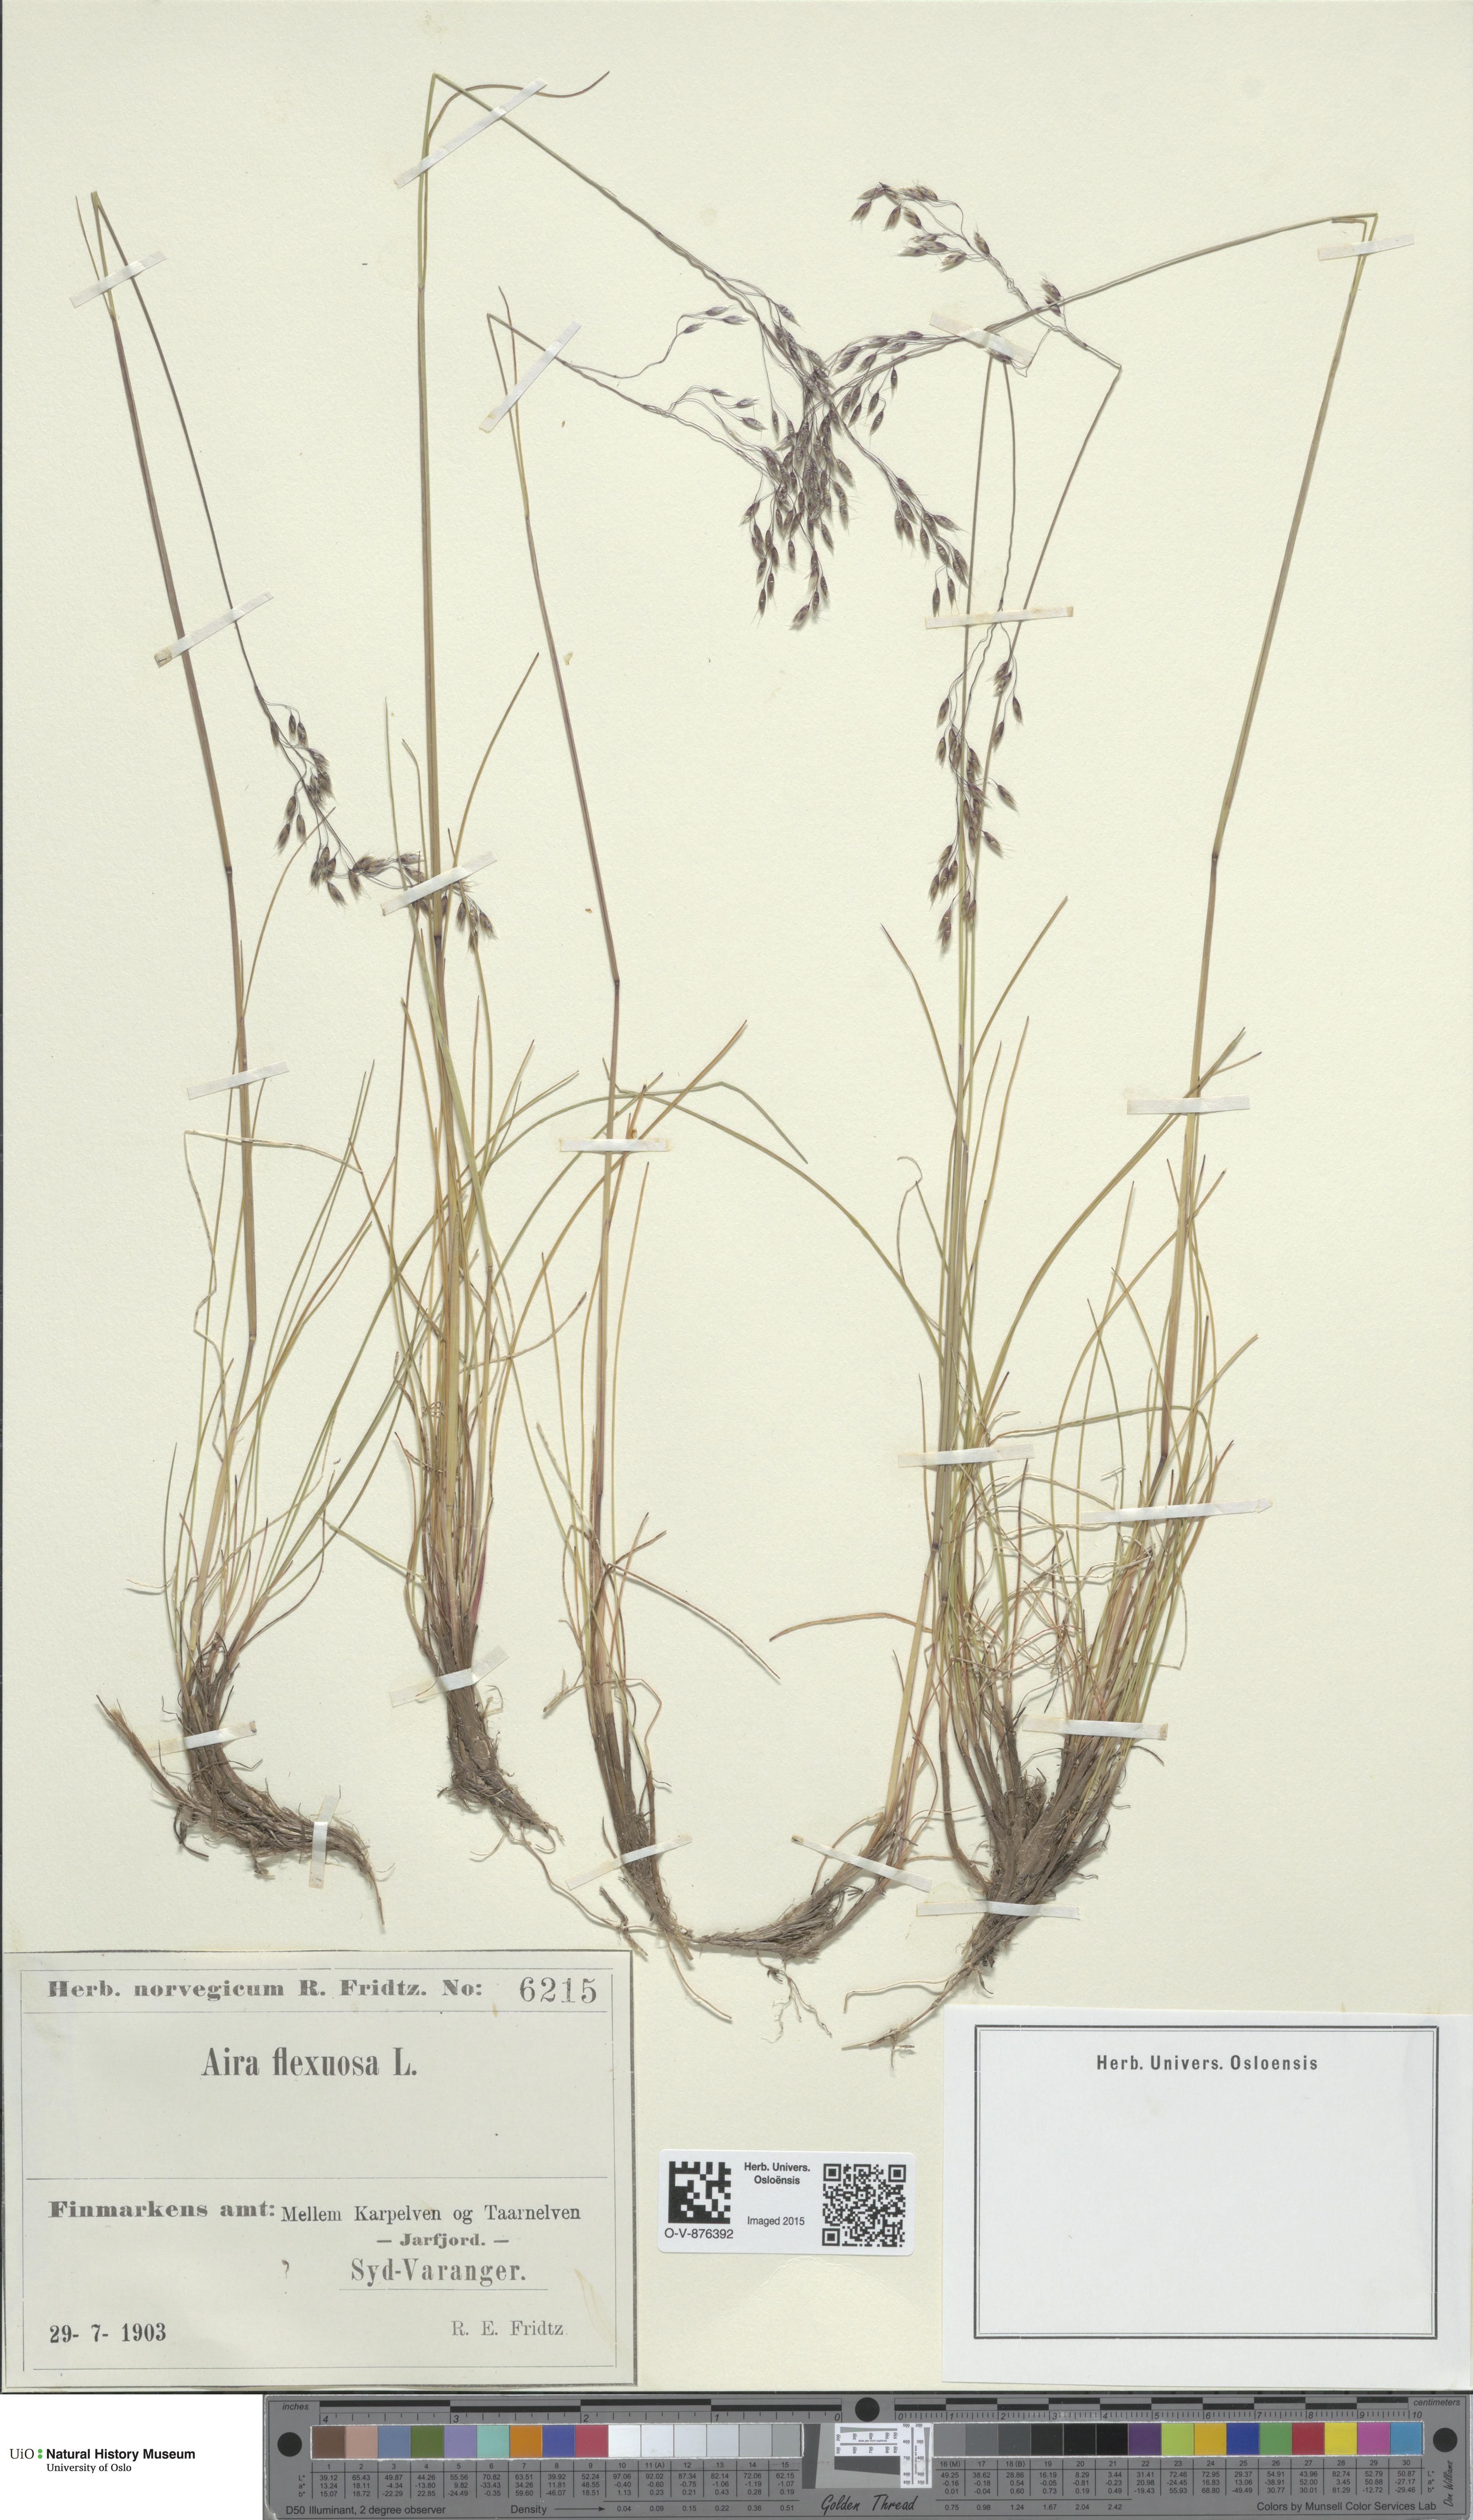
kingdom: Plantae
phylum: Tracheophyta
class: Liliopsida
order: Poales
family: Poaceae
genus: Avenella
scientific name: Avenella flexuosa
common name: Wavy hairgrass
